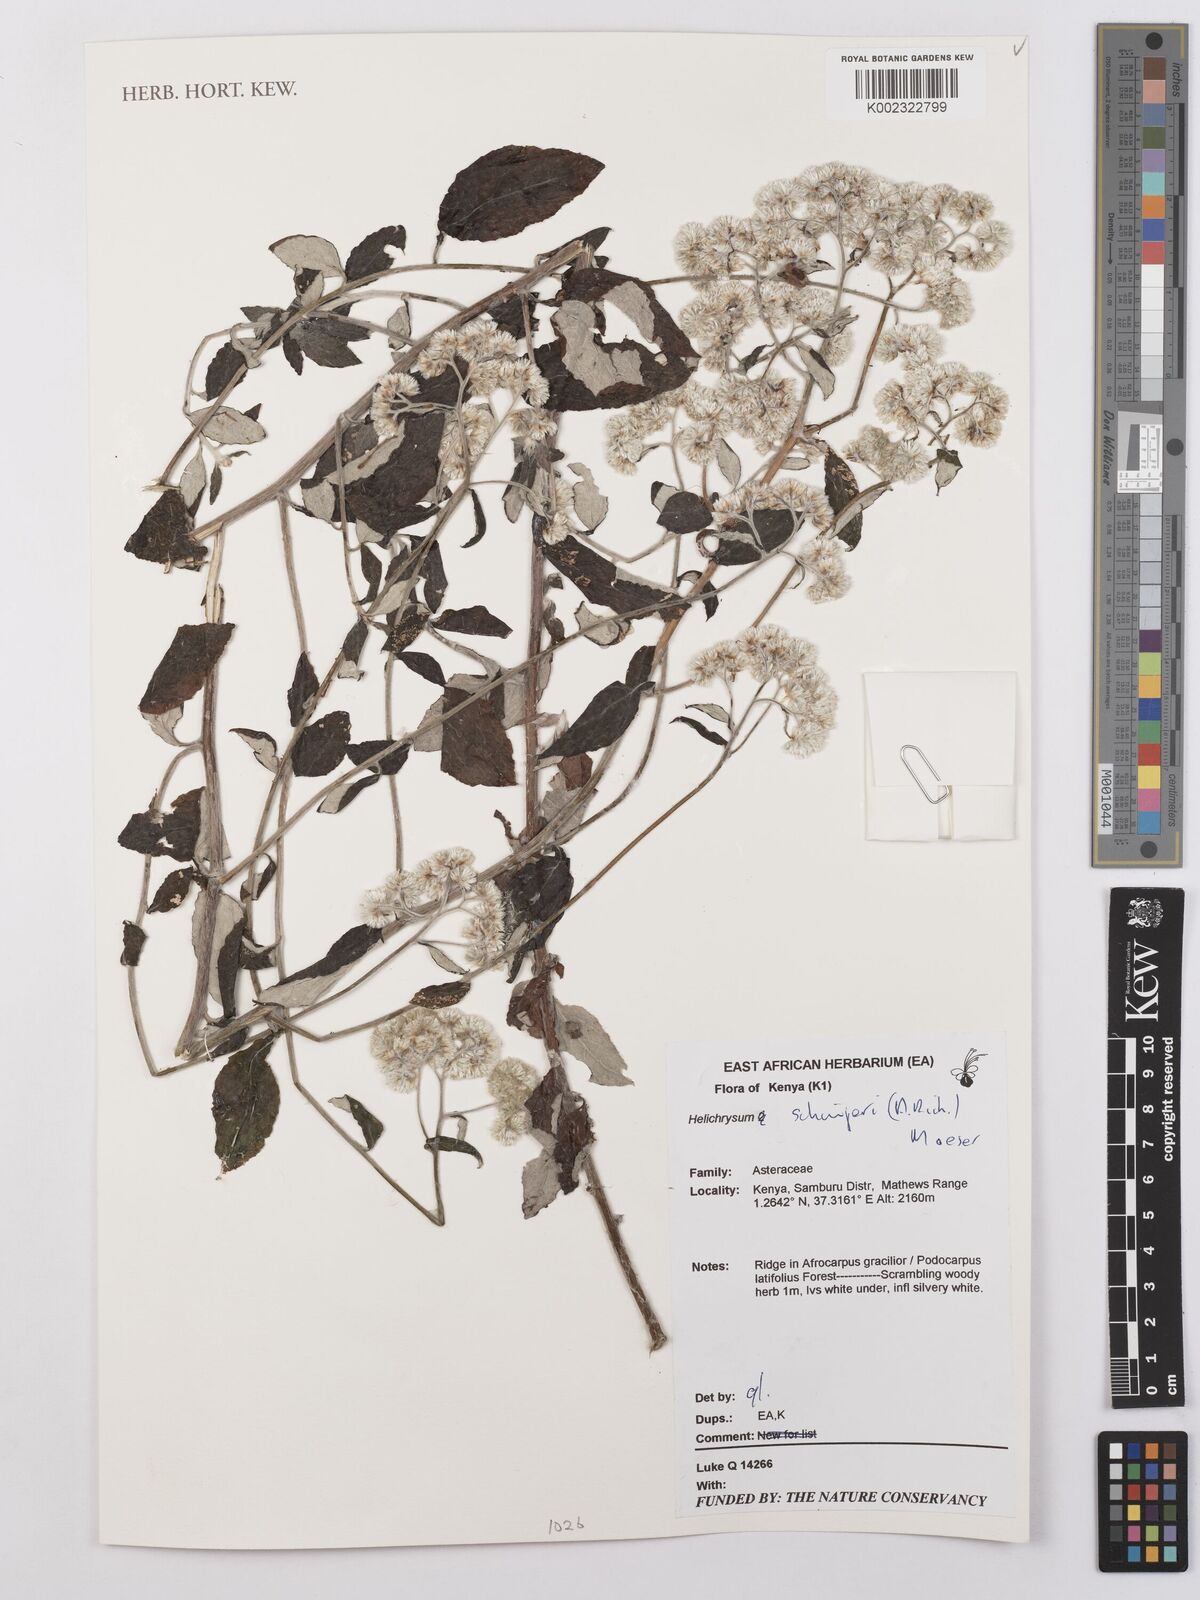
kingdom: Plantae
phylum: Tracheophyta
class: Magnoliopsida
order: Asterales
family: Asteraceae
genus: Helichrysum
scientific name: Helichrysum schimperi
